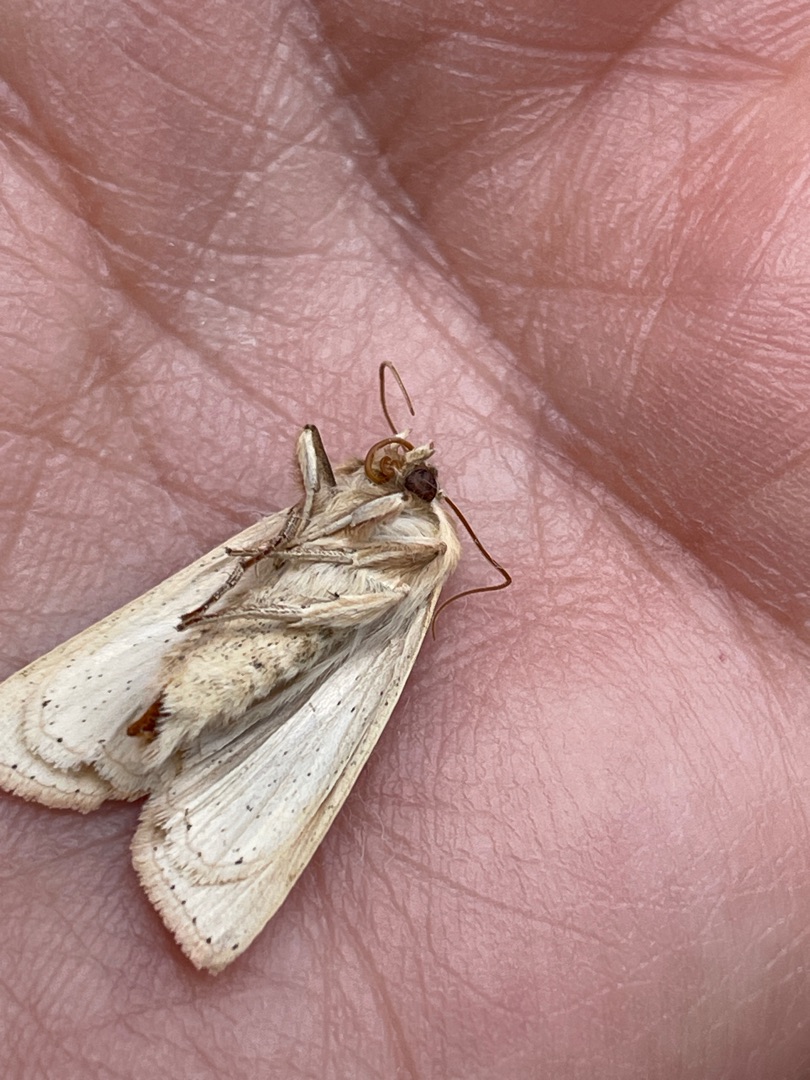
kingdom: Animalia
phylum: Arthropoda
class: Insecta
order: Lepidoptera
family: Noctuidae
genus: Mythimna
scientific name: Mythimna pallens
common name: Halmugle
